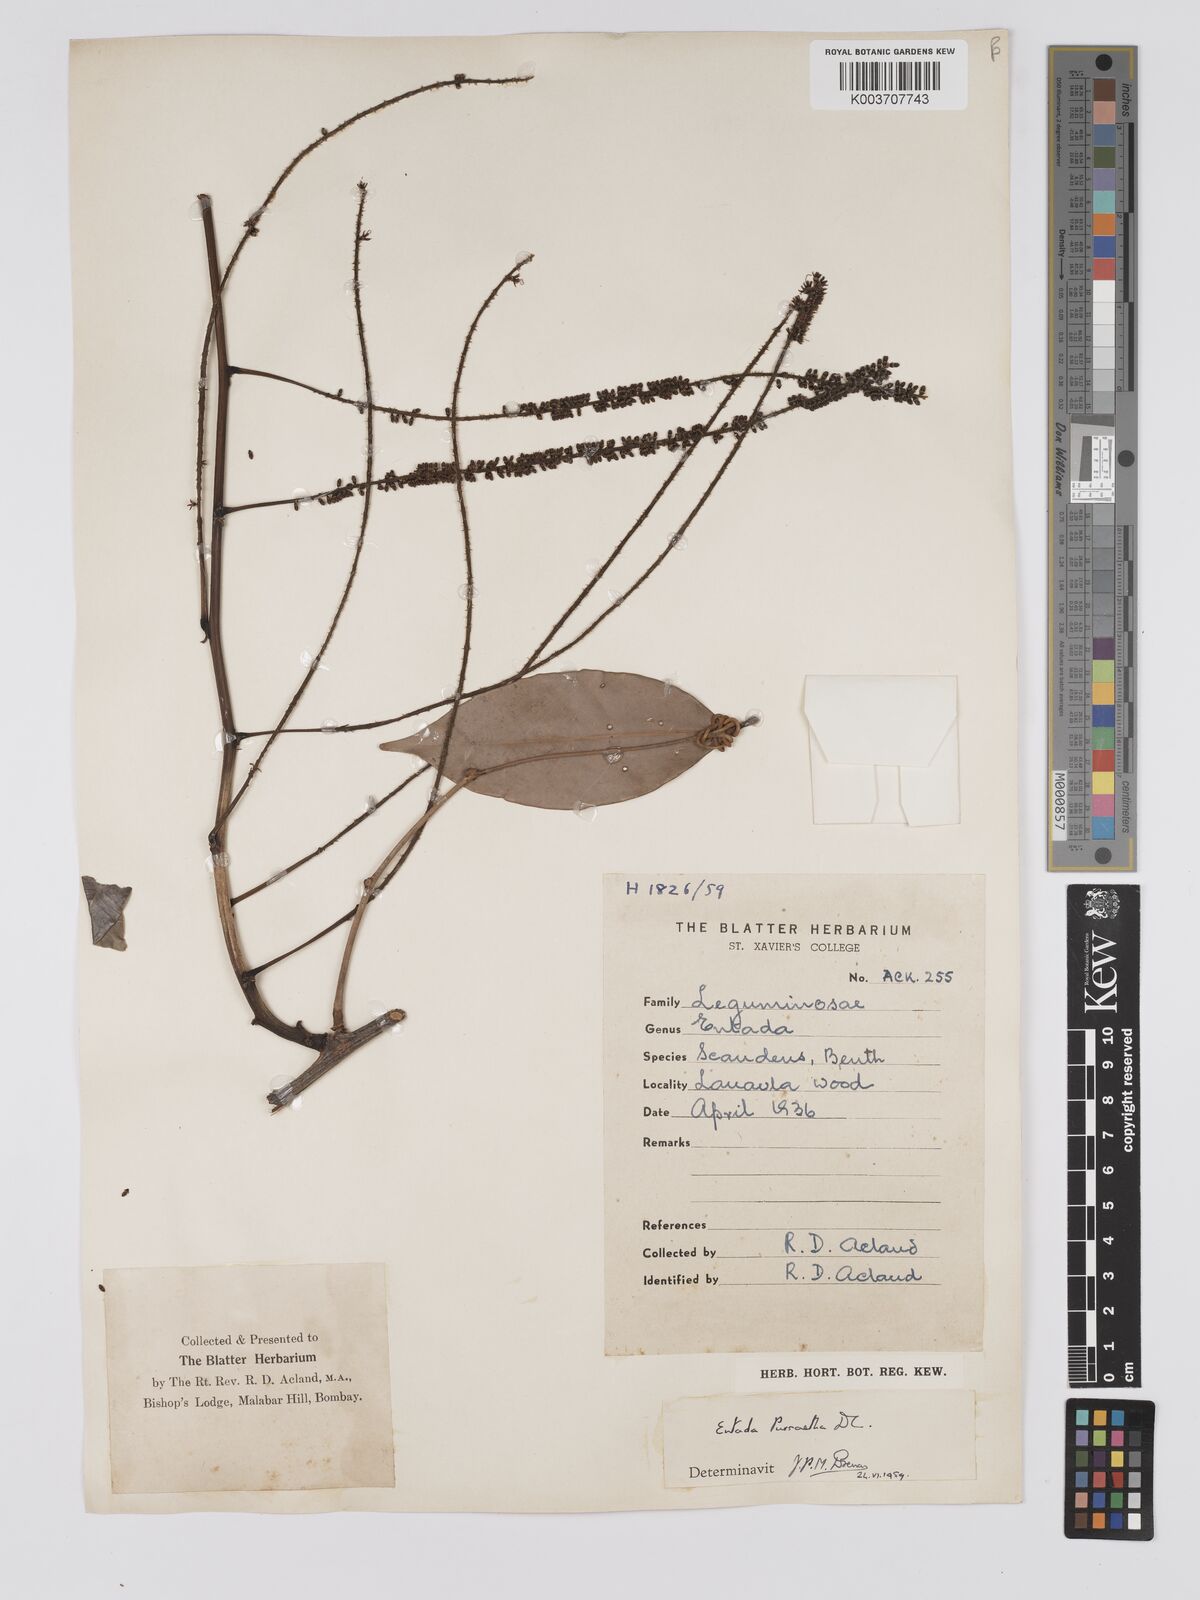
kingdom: Plantae
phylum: Tracheophyta
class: Magnoliopsida
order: Fabales
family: Fabaceae
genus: Entada
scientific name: Entada phaseoloides
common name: Matchbox-bean
